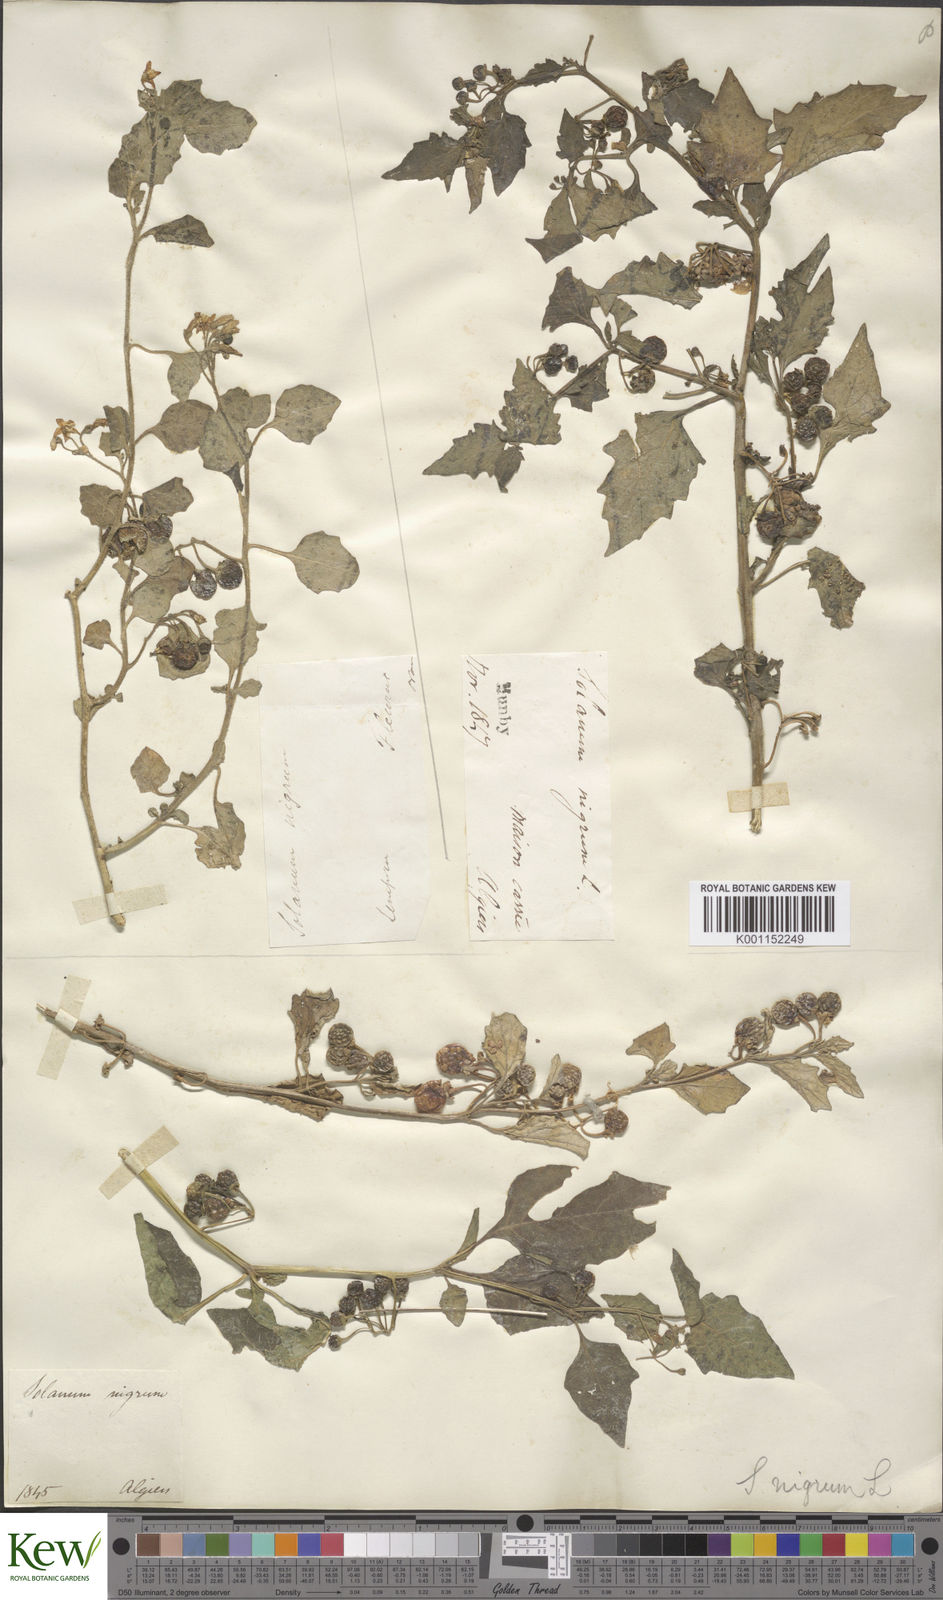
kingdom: Plantae
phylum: Tracheophyta
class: Magnoliopsida
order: Solanales
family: Solanaceae
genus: Solanum
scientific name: Solanum villosum
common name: Red nightshade
